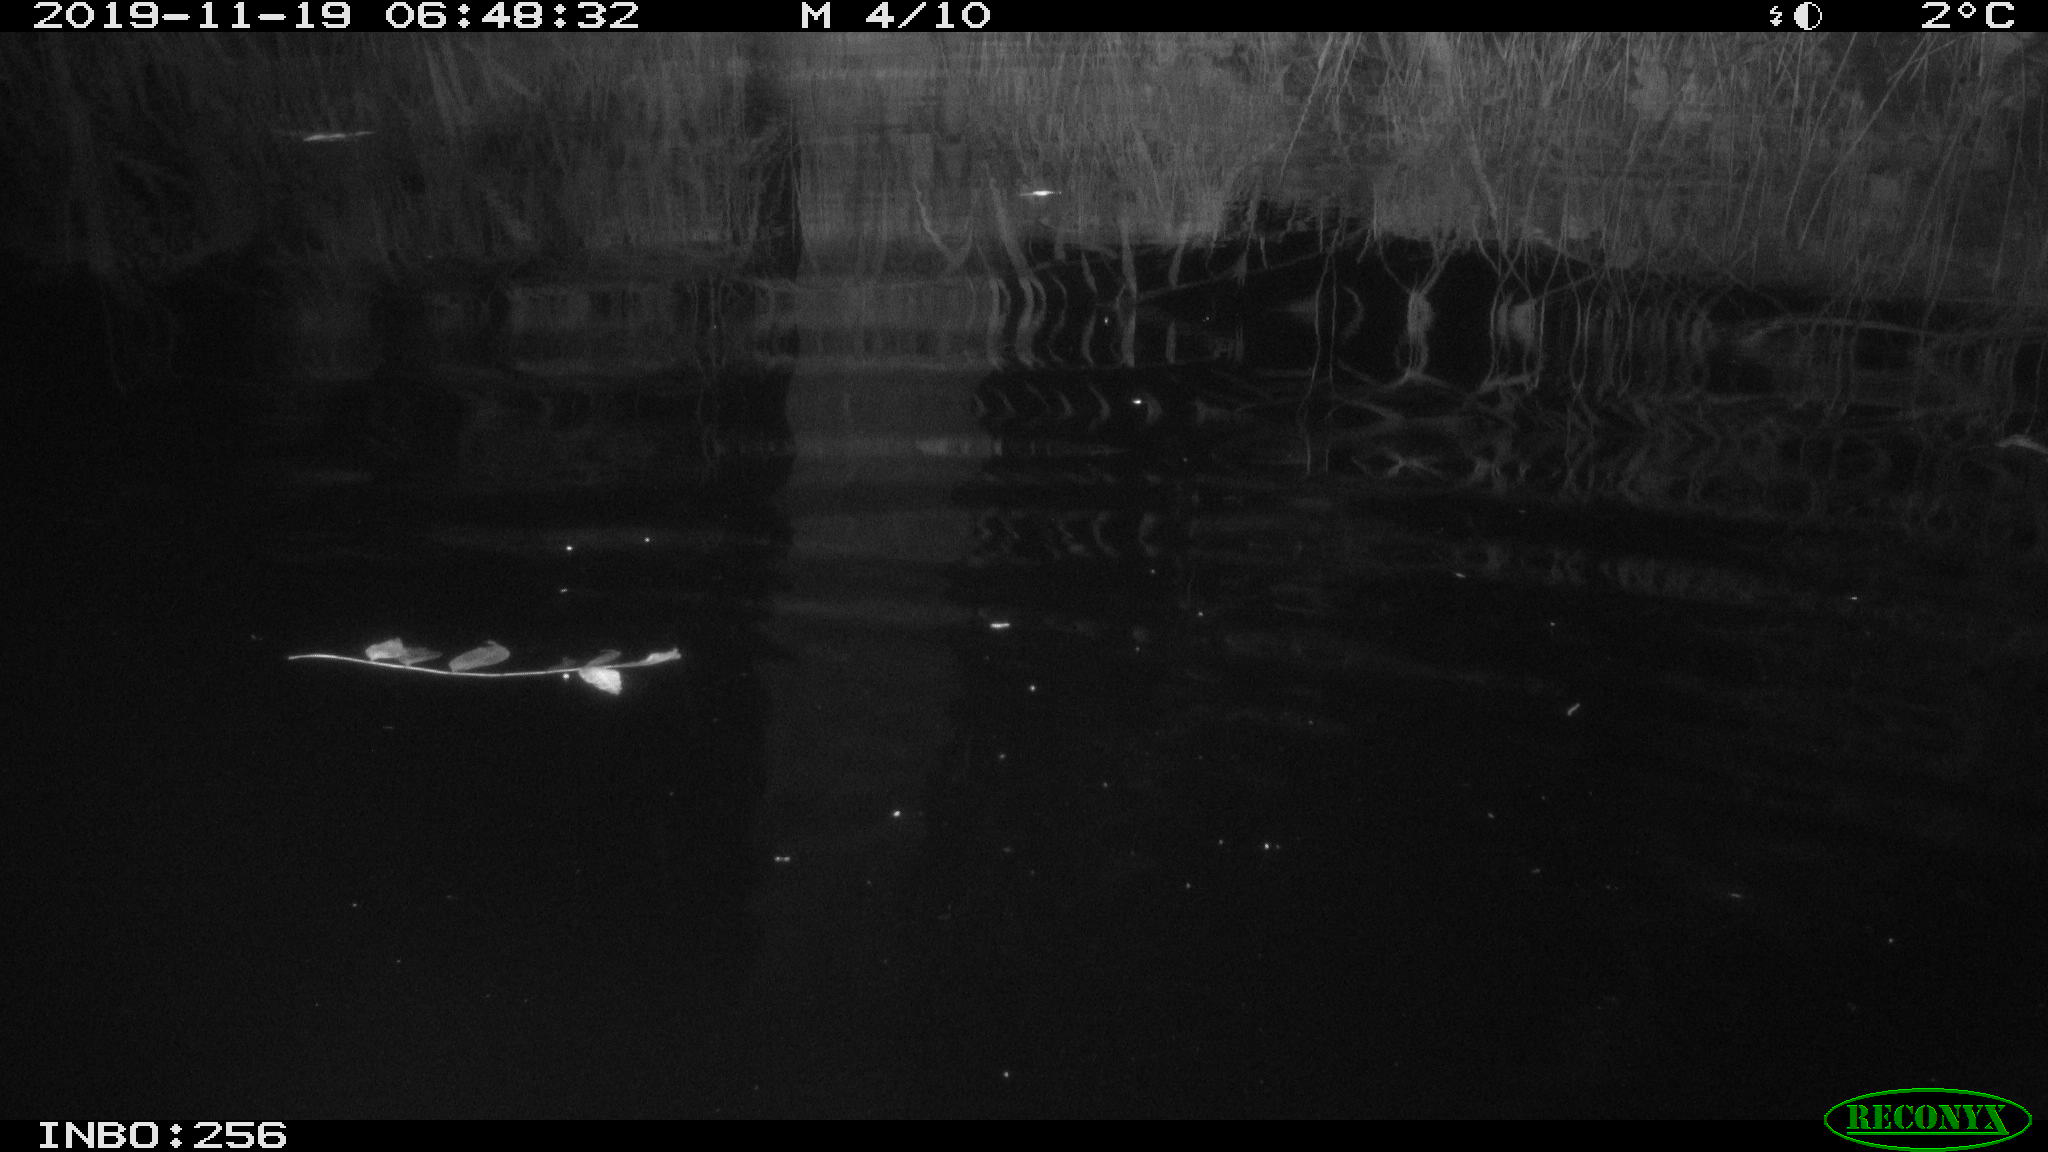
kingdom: Animalia
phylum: Chordata
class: Mammalia
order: Rodentia
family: Muridae
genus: Rattus
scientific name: Rattus norvegicus
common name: Brown rat
